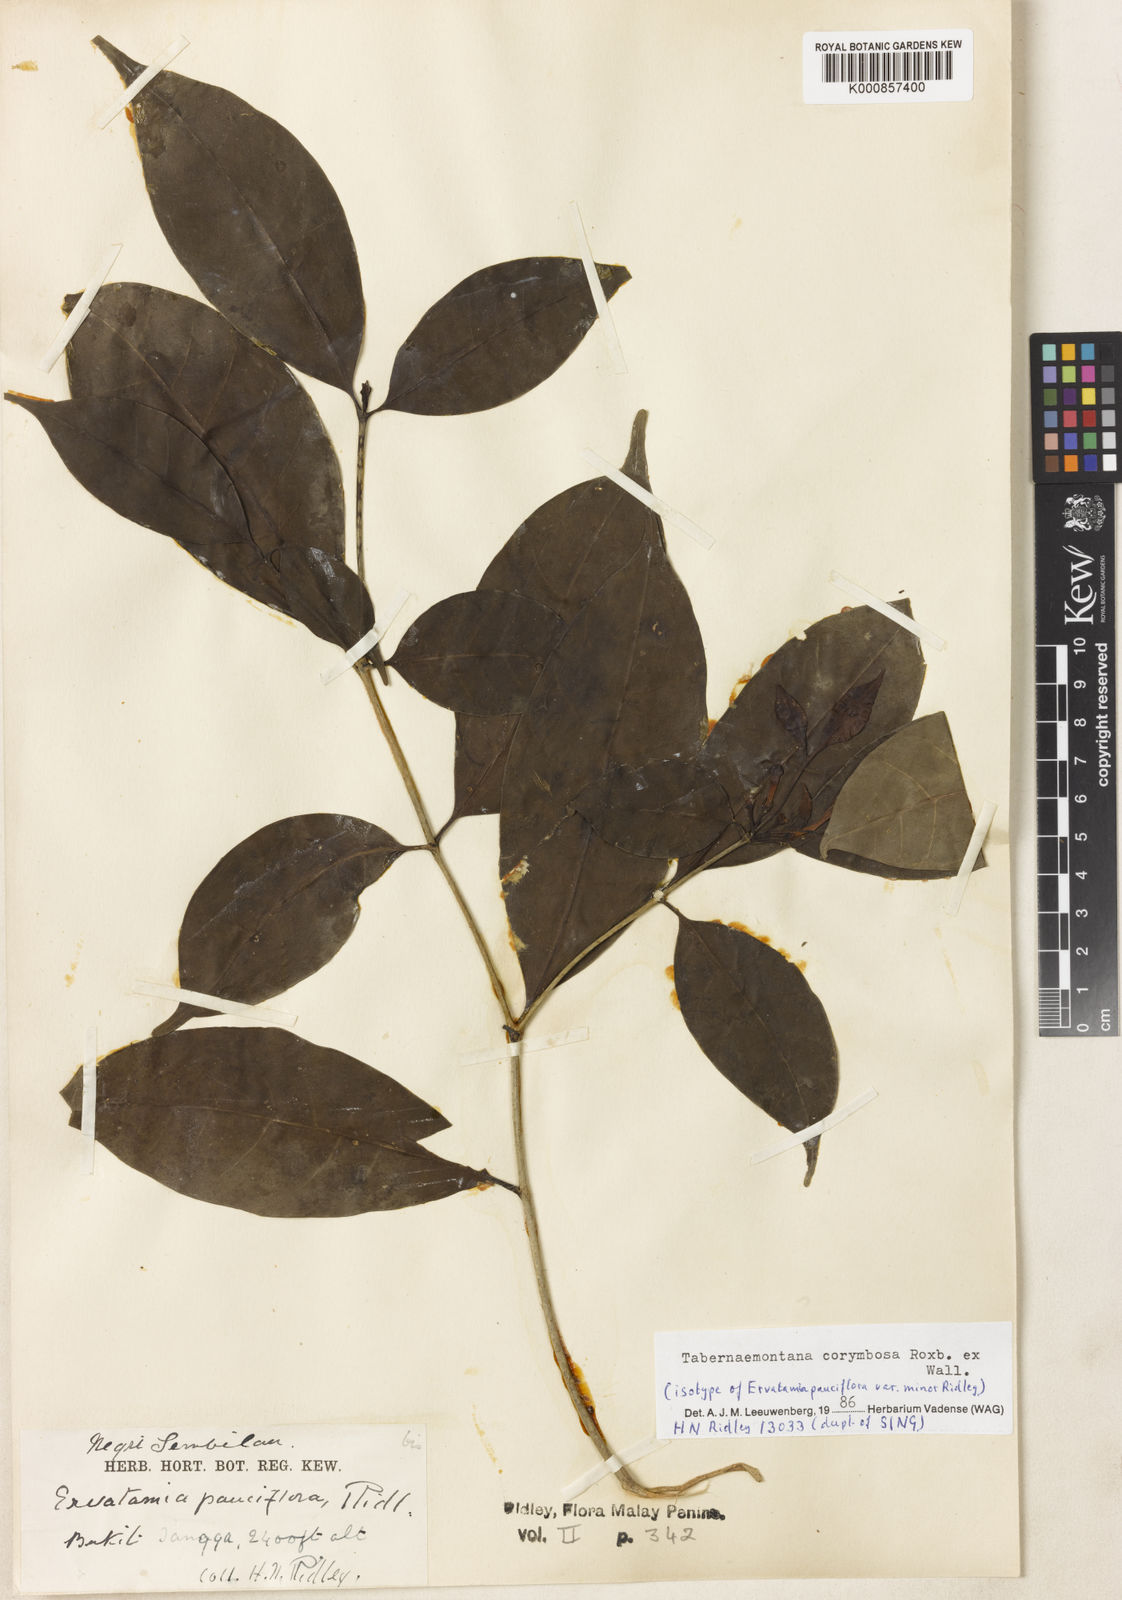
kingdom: Plantae
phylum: Tracheophyta
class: Magnoliopsida
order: Gentianales
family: Apocynaceae
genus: Tabernaemontana
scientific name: Tabernaemontana corymbosa
